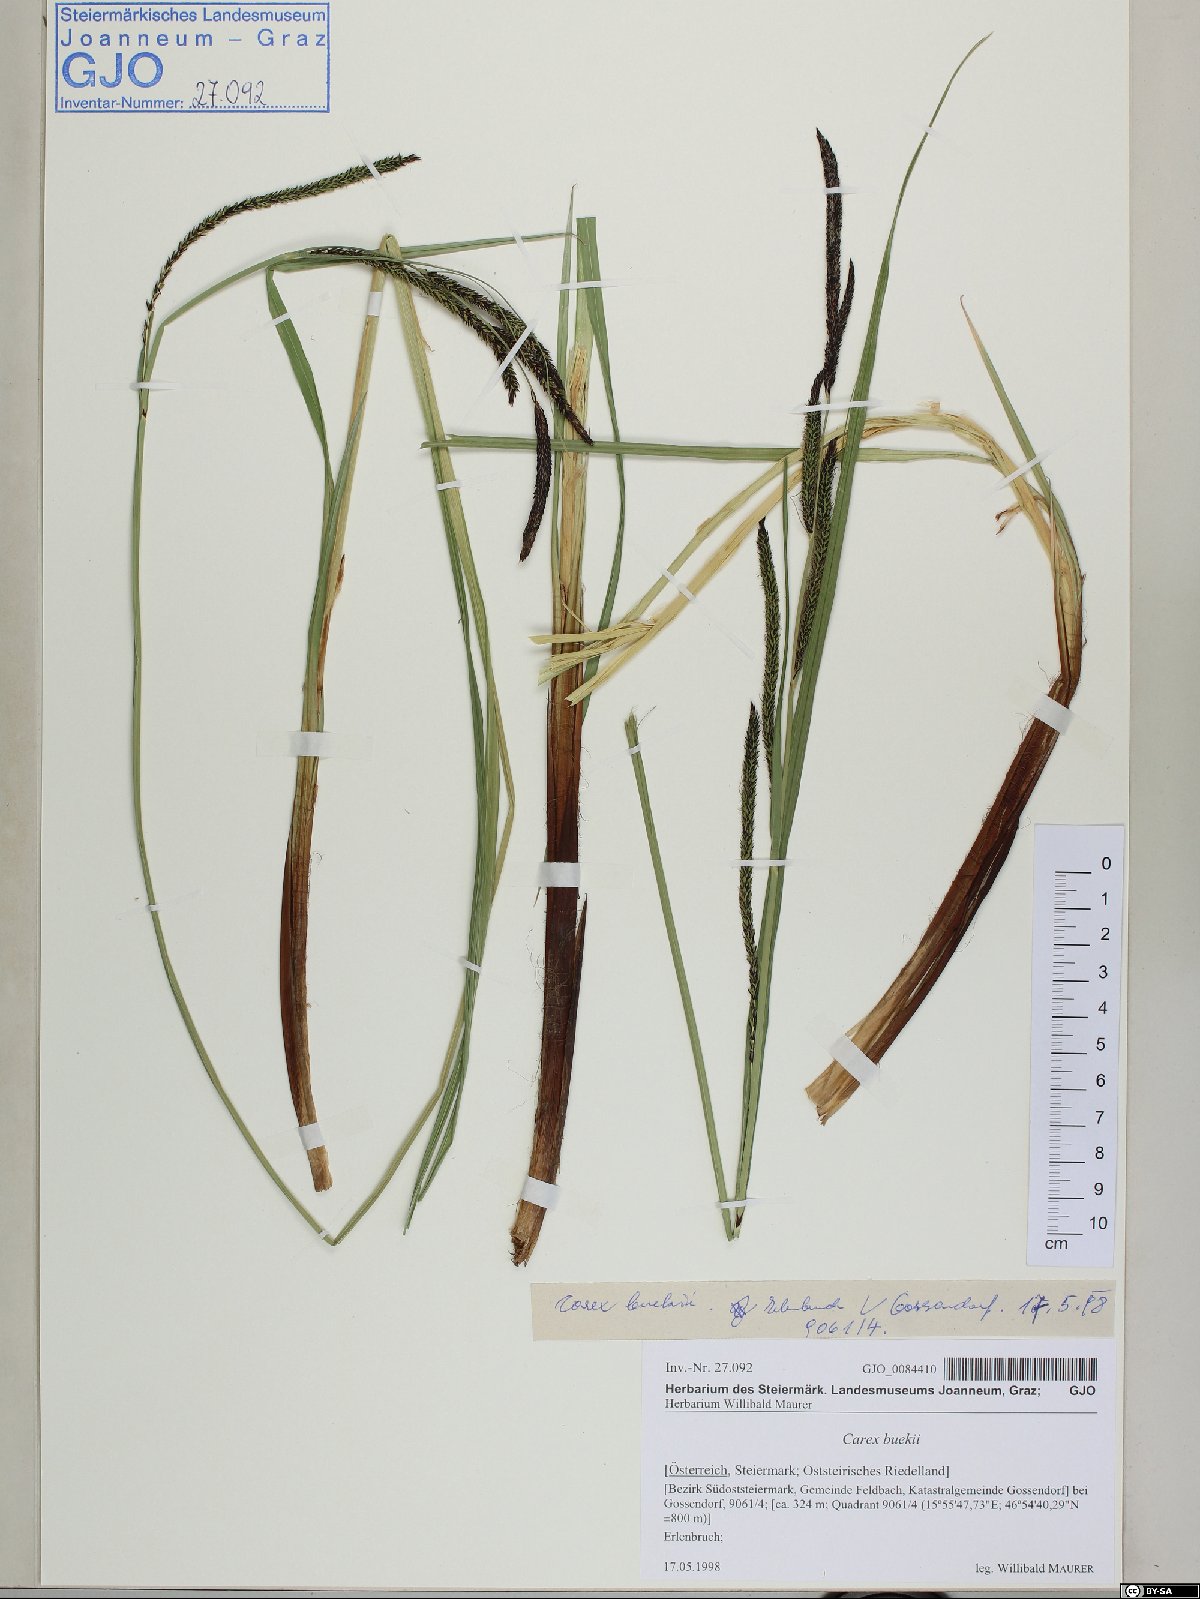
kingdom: Plantae
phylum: Tracheophyta
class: Liliopsida
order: Poales
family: Cyperaceae
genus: Carex
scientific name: Carex buekii
